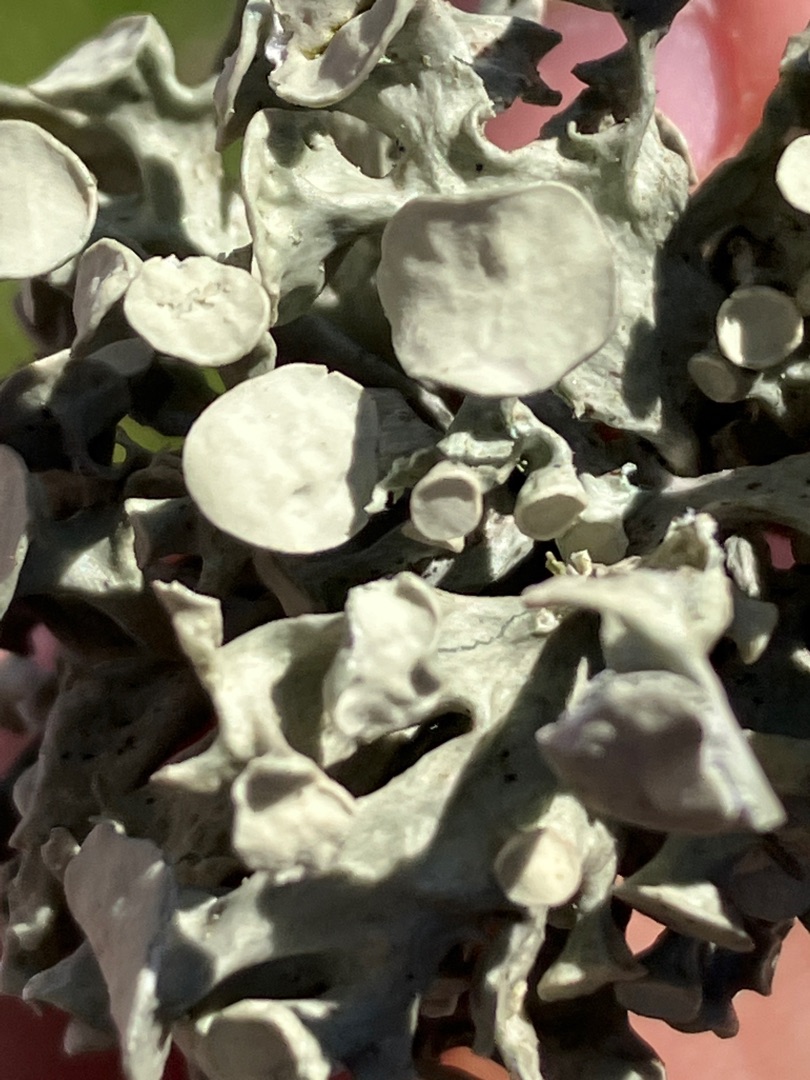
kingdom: Fungi
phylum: Ascomycota
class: Lecanoromycetes
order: Lecanorales
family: Ramalinaceae
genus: Ramalina
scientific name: Ramalina fastigiata
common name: Tue-grenlav
